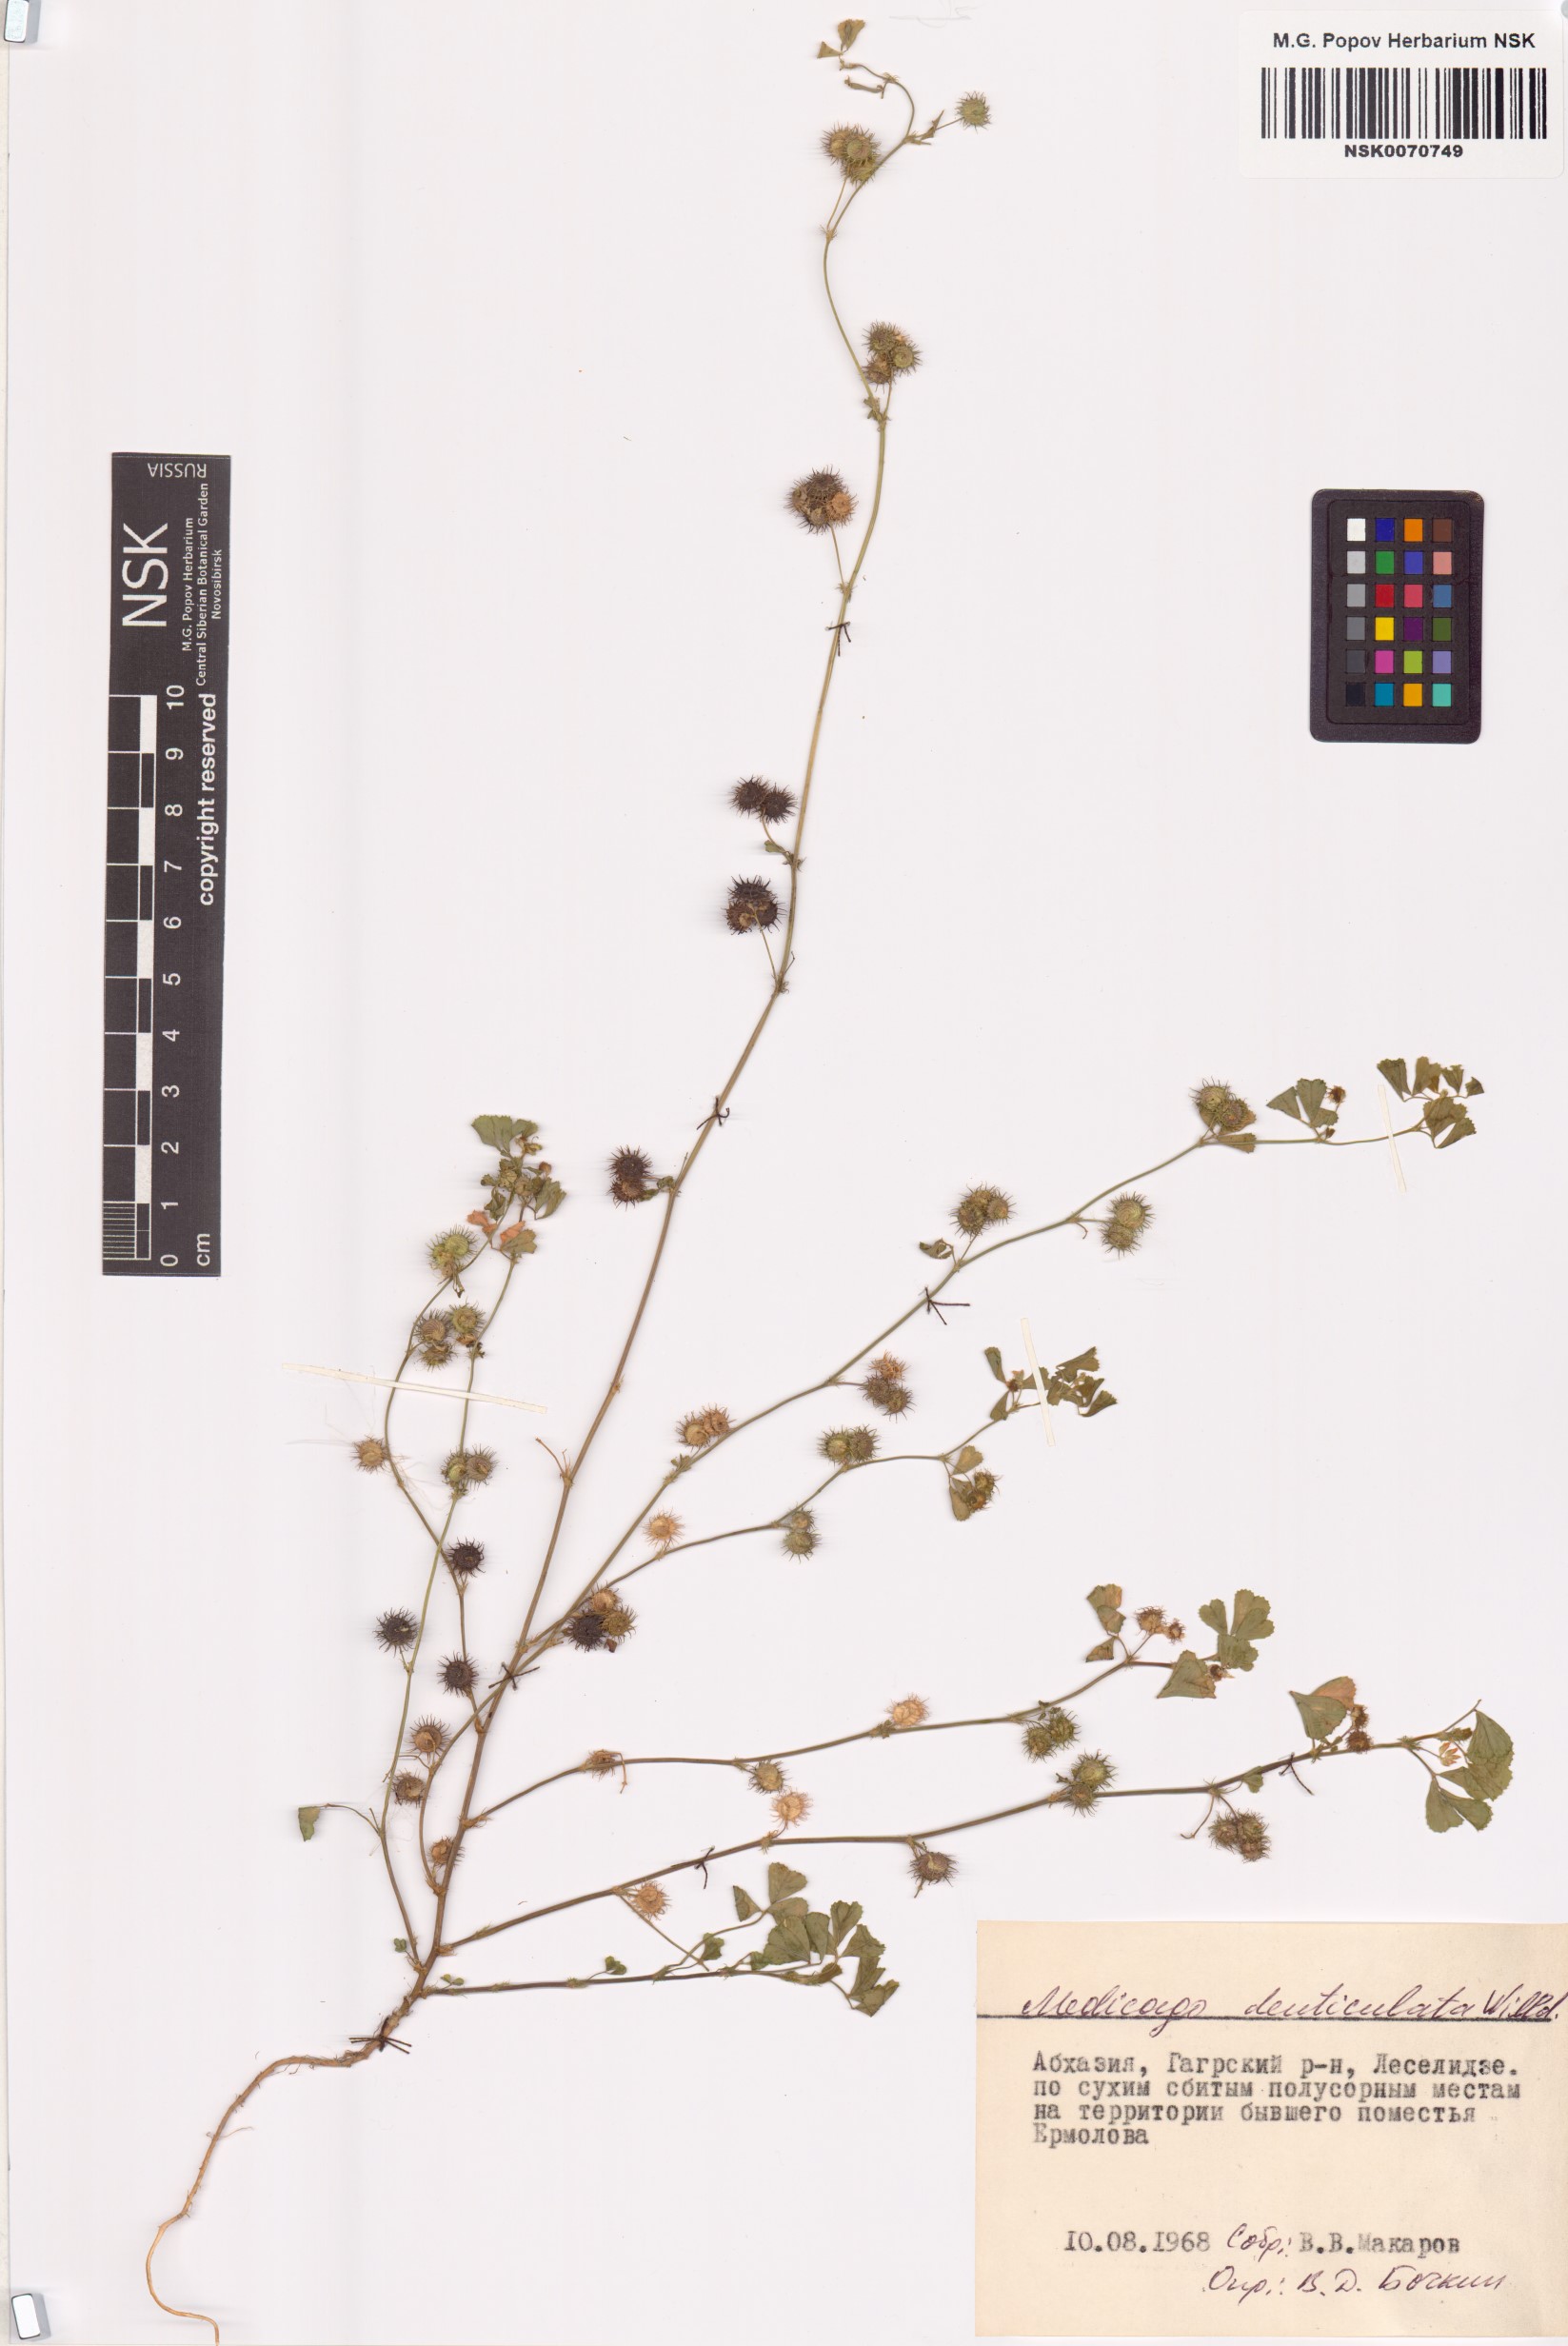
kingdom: Plantae
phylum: Tracheophyta
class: Magnoliopsida
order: Fabales
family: Fabaceae
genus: Medicago
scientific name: Medicago polymorpha
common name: Burclover
